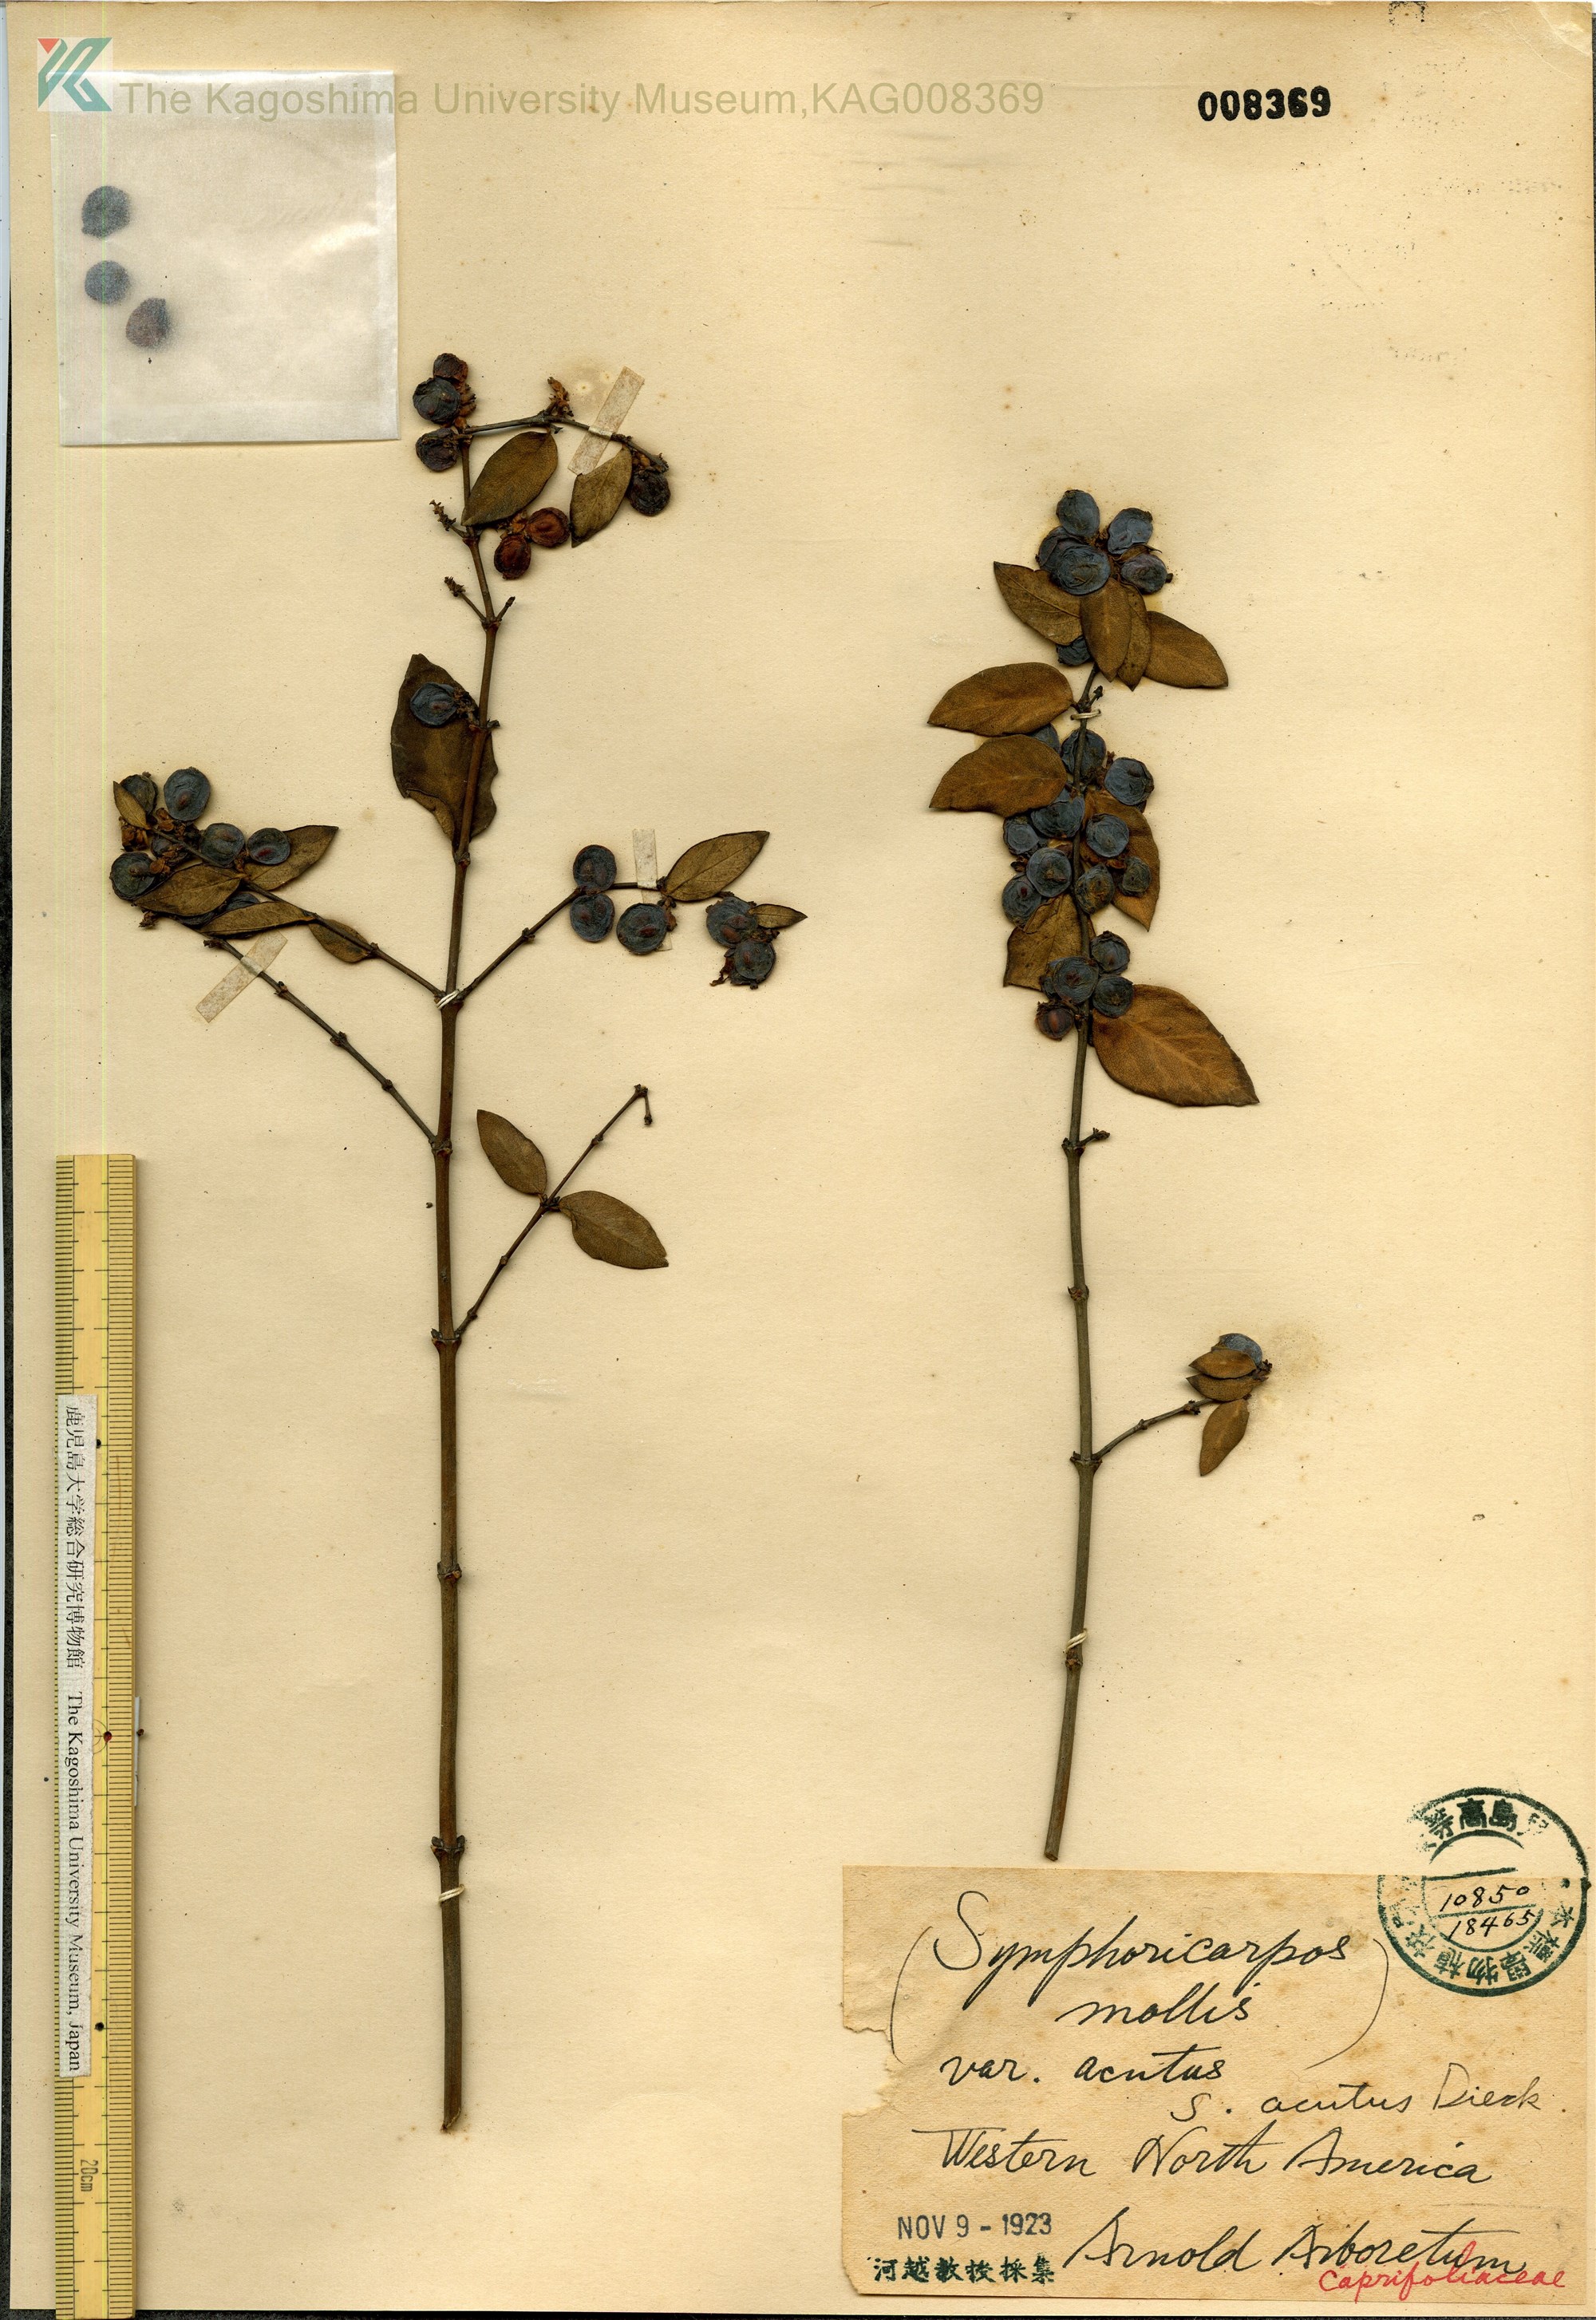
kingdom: Plantae
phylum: Tracheophyta
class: Magnoliopsida
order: Dipsacales
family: Caprifoliaceae
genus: Symphoricarpos
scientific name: Symphoricarpos acutus
